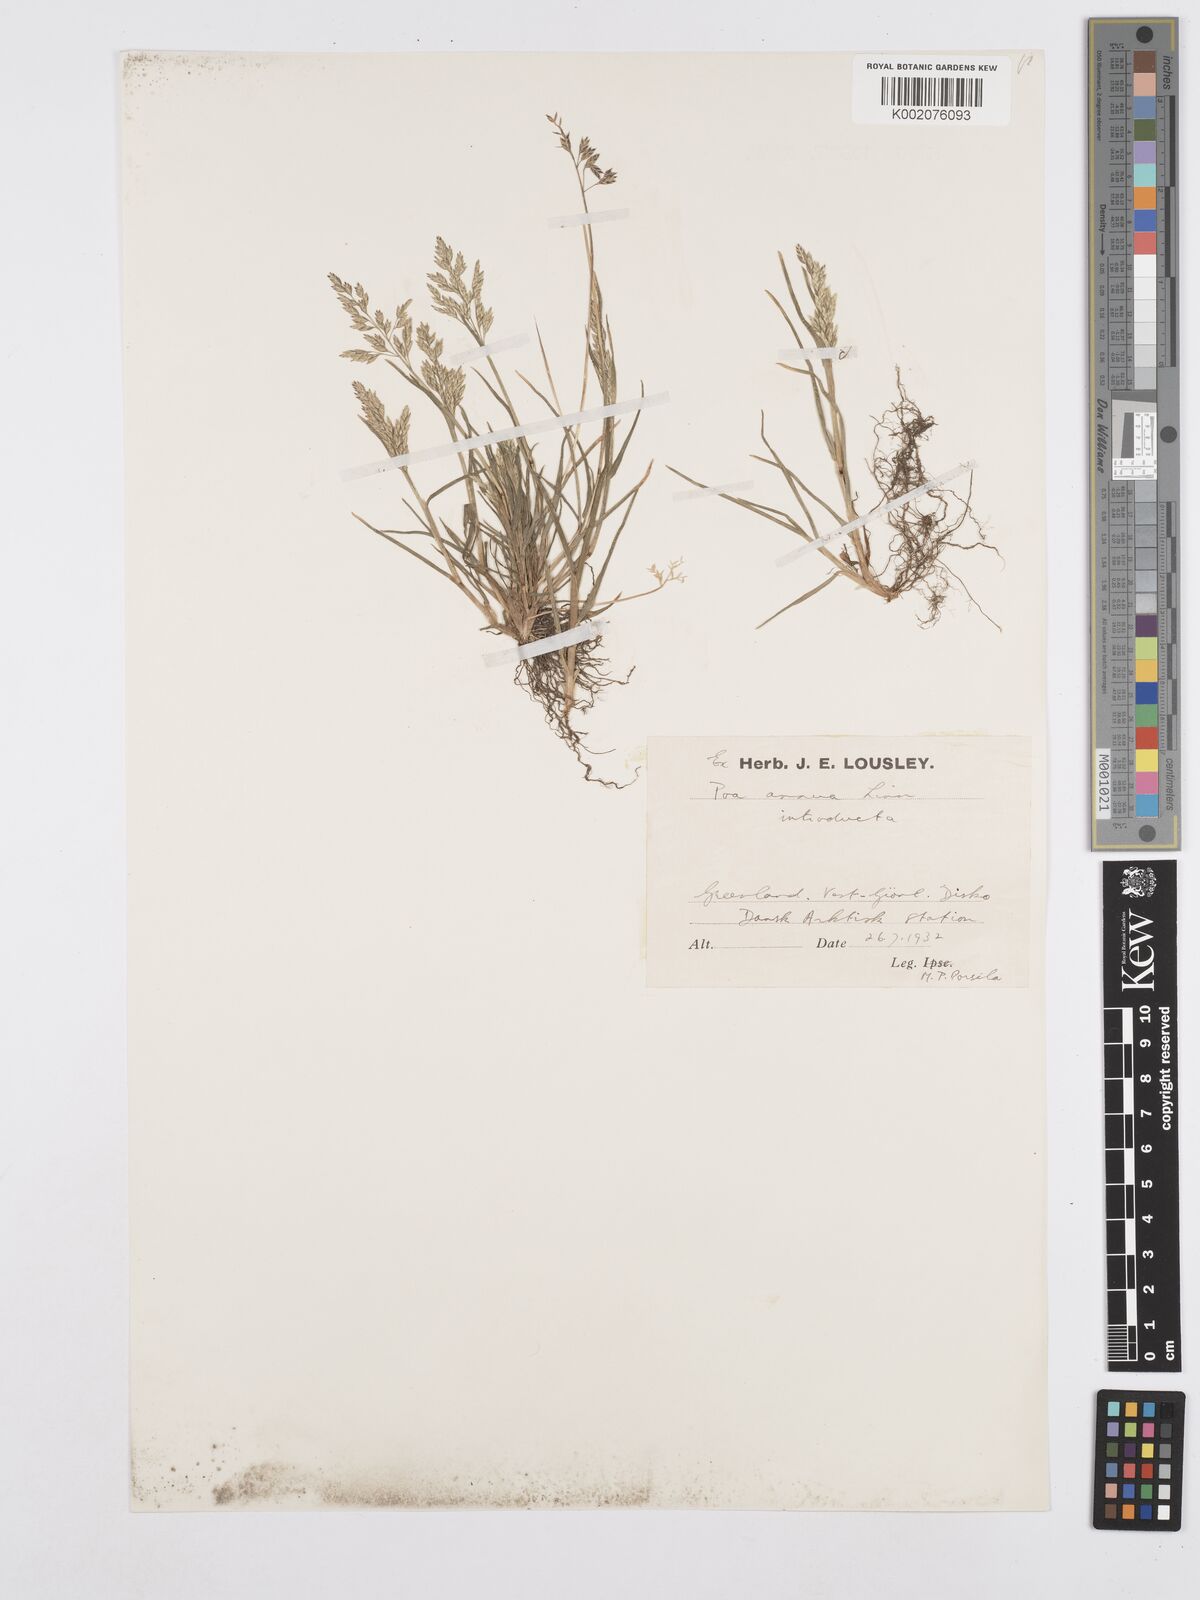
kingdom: Plantae
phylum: Tracheophyta
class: Liliopsida
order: Poales
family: Poaceae
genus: Poa
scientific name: Poa annua
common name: Annual bluegrass
